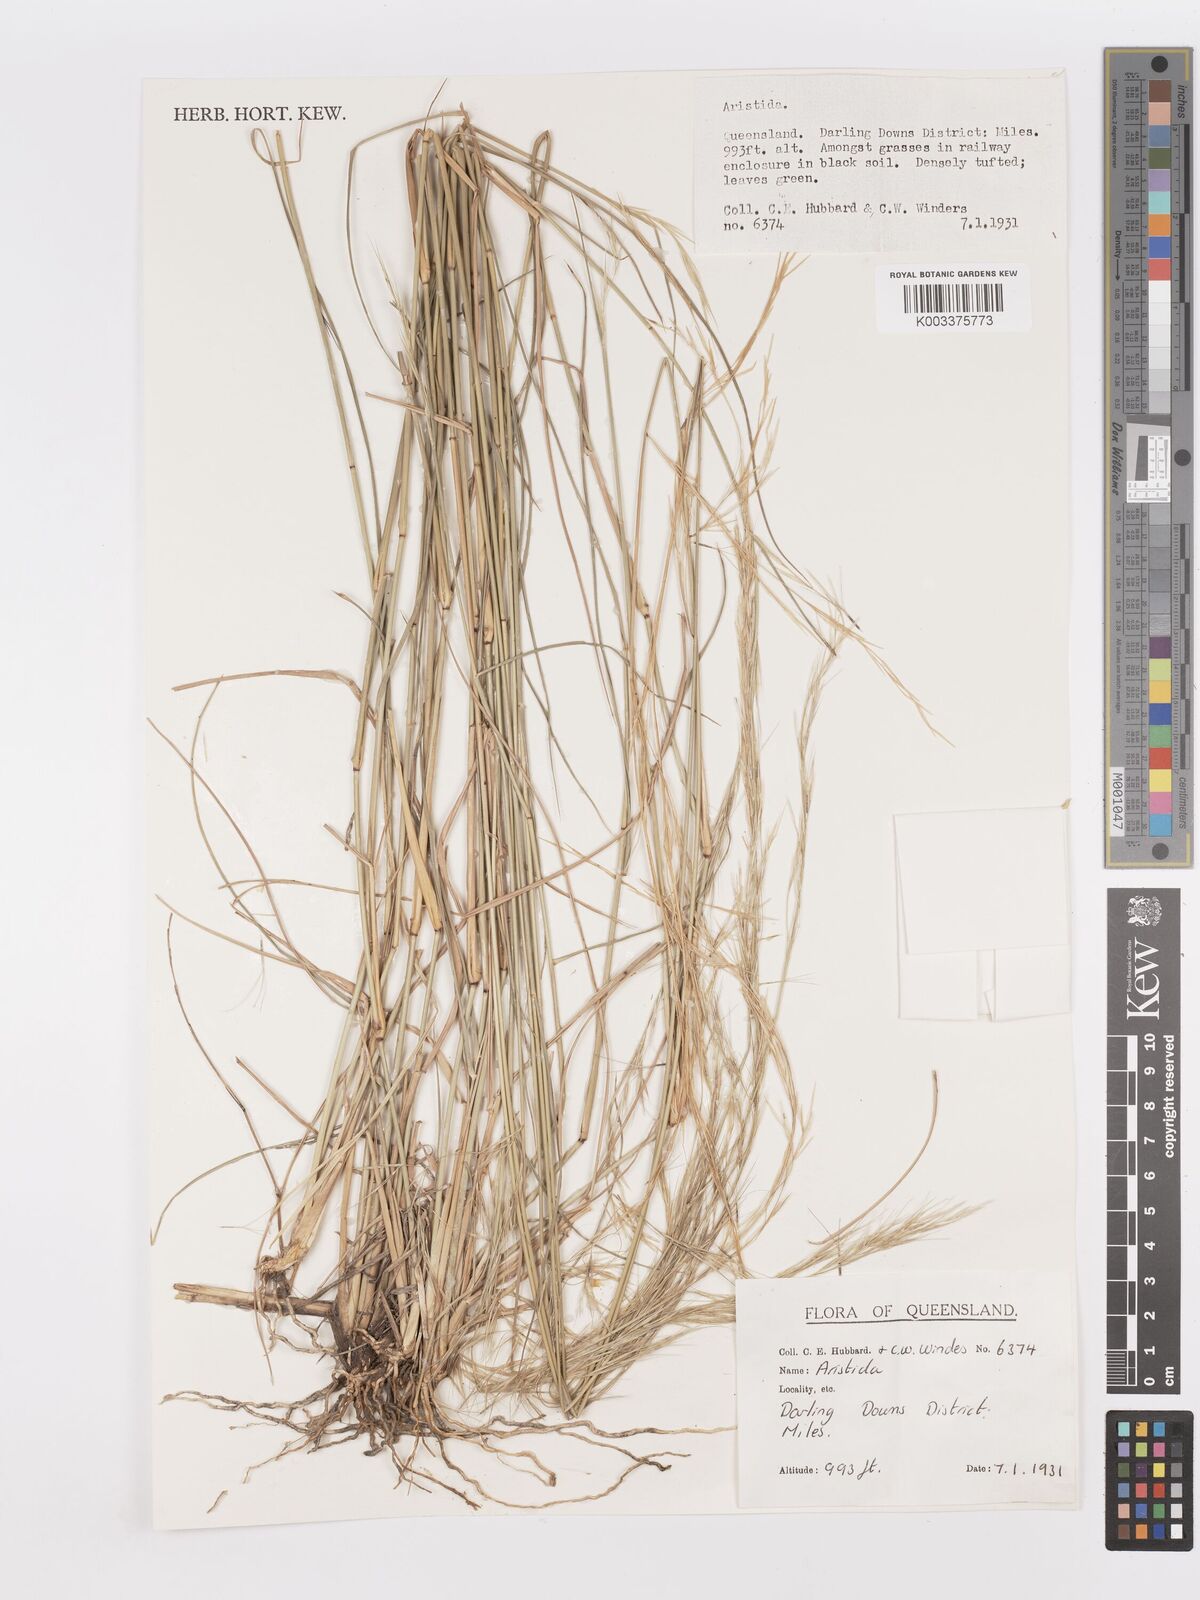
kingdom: Plantae
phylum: Tracheophyta
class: Liliopsida
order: Poales
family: Poaceae
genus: Aristida
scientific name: Aristida
